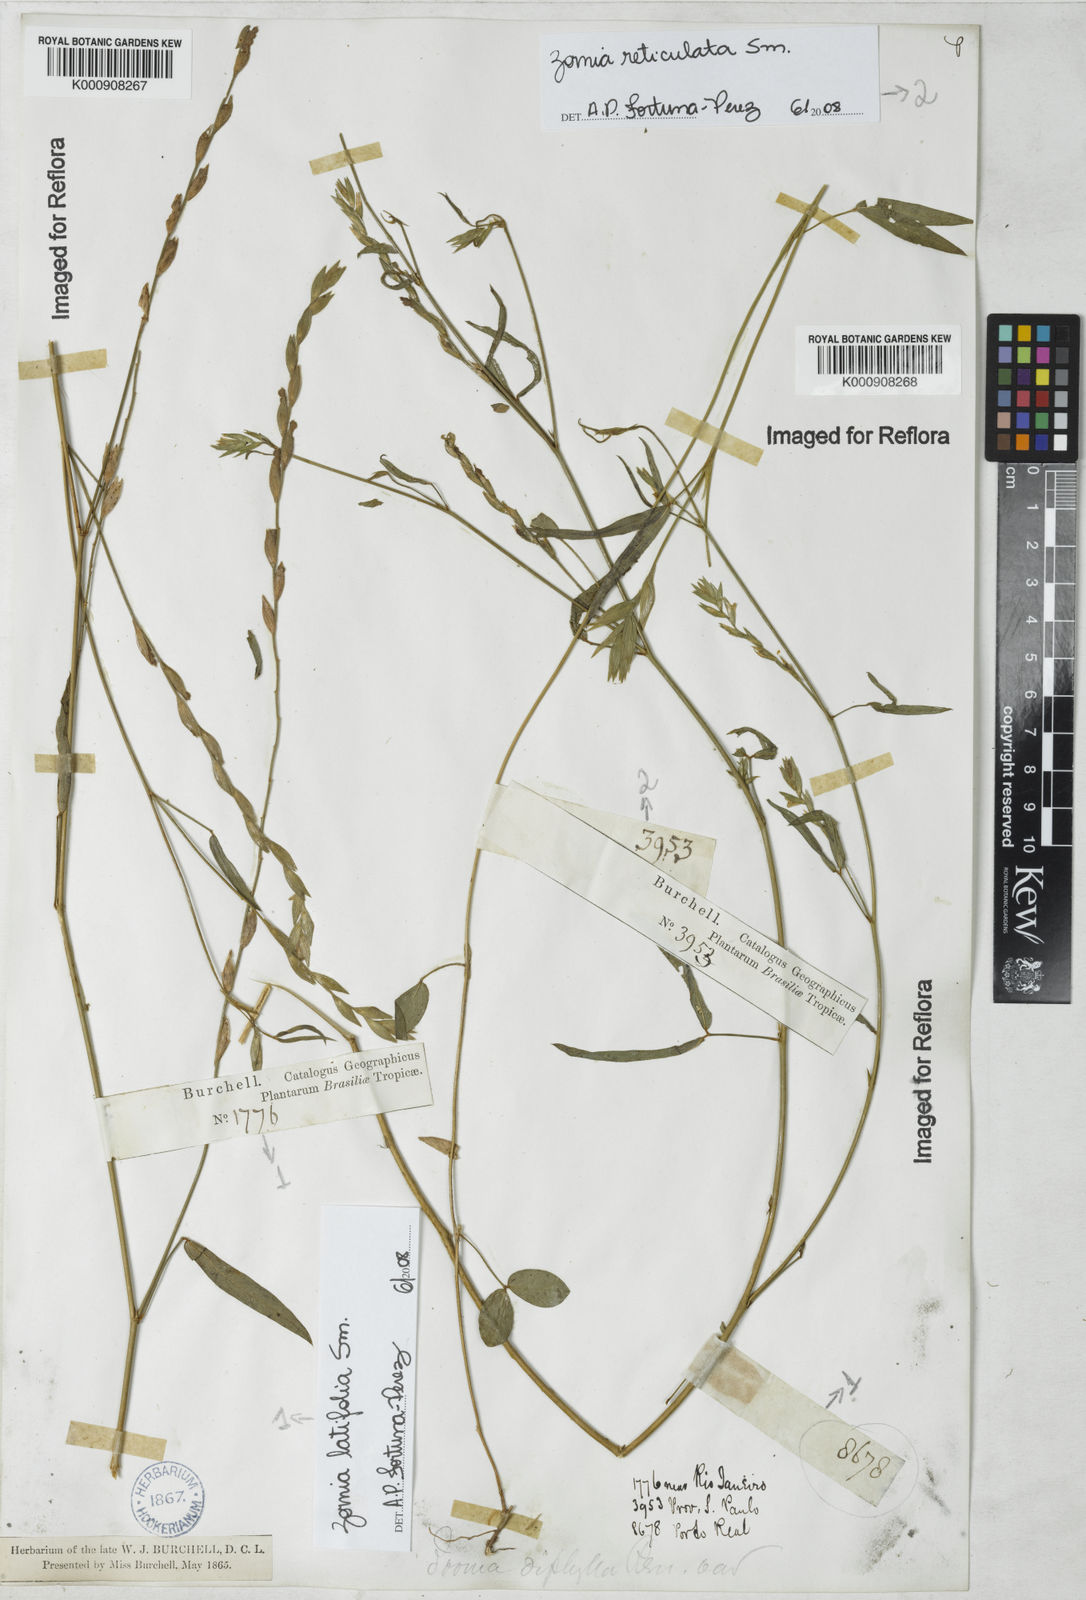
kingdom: Plantae
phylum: Tracheophyta
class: Magnoliopsida
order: Fabales
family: Fabaceae
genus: Zornia
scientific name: Zornia
